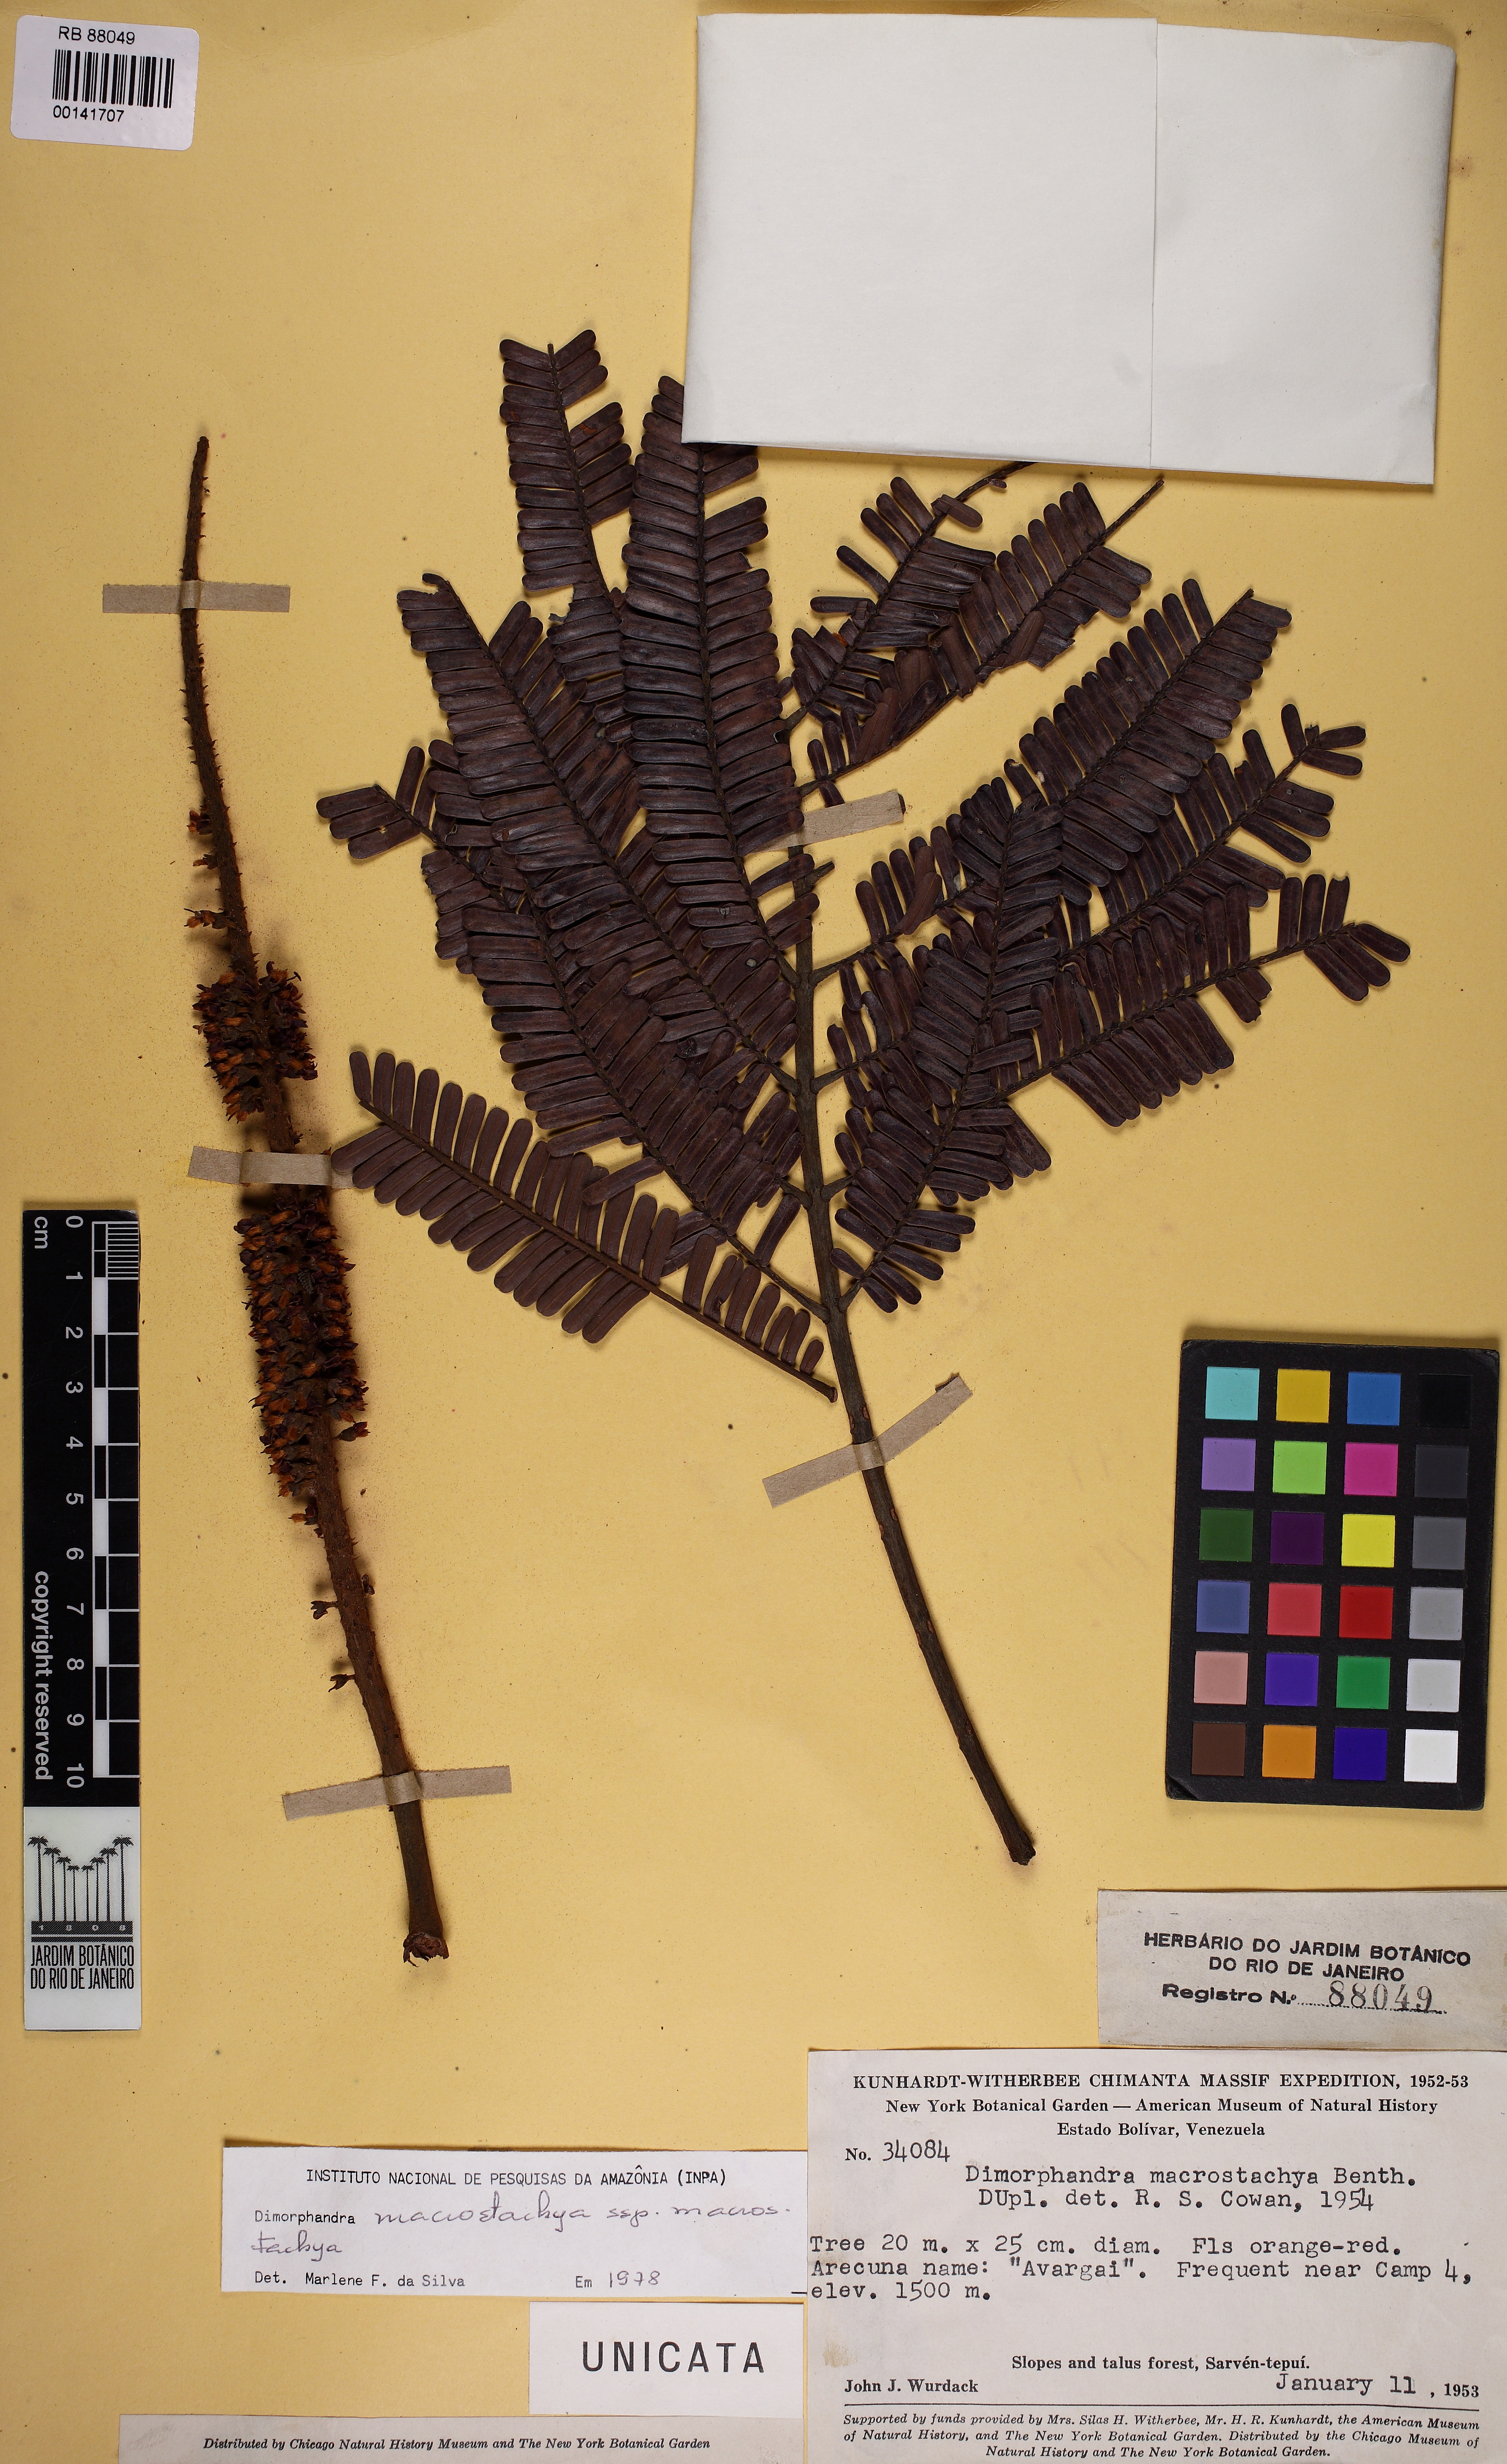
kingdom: Plantae
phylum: Tracheophyta
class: Magnoliopsida
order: Fabales
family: Fabaceae
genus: Dimorphandra
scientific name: Dimorphandra macrostachya
